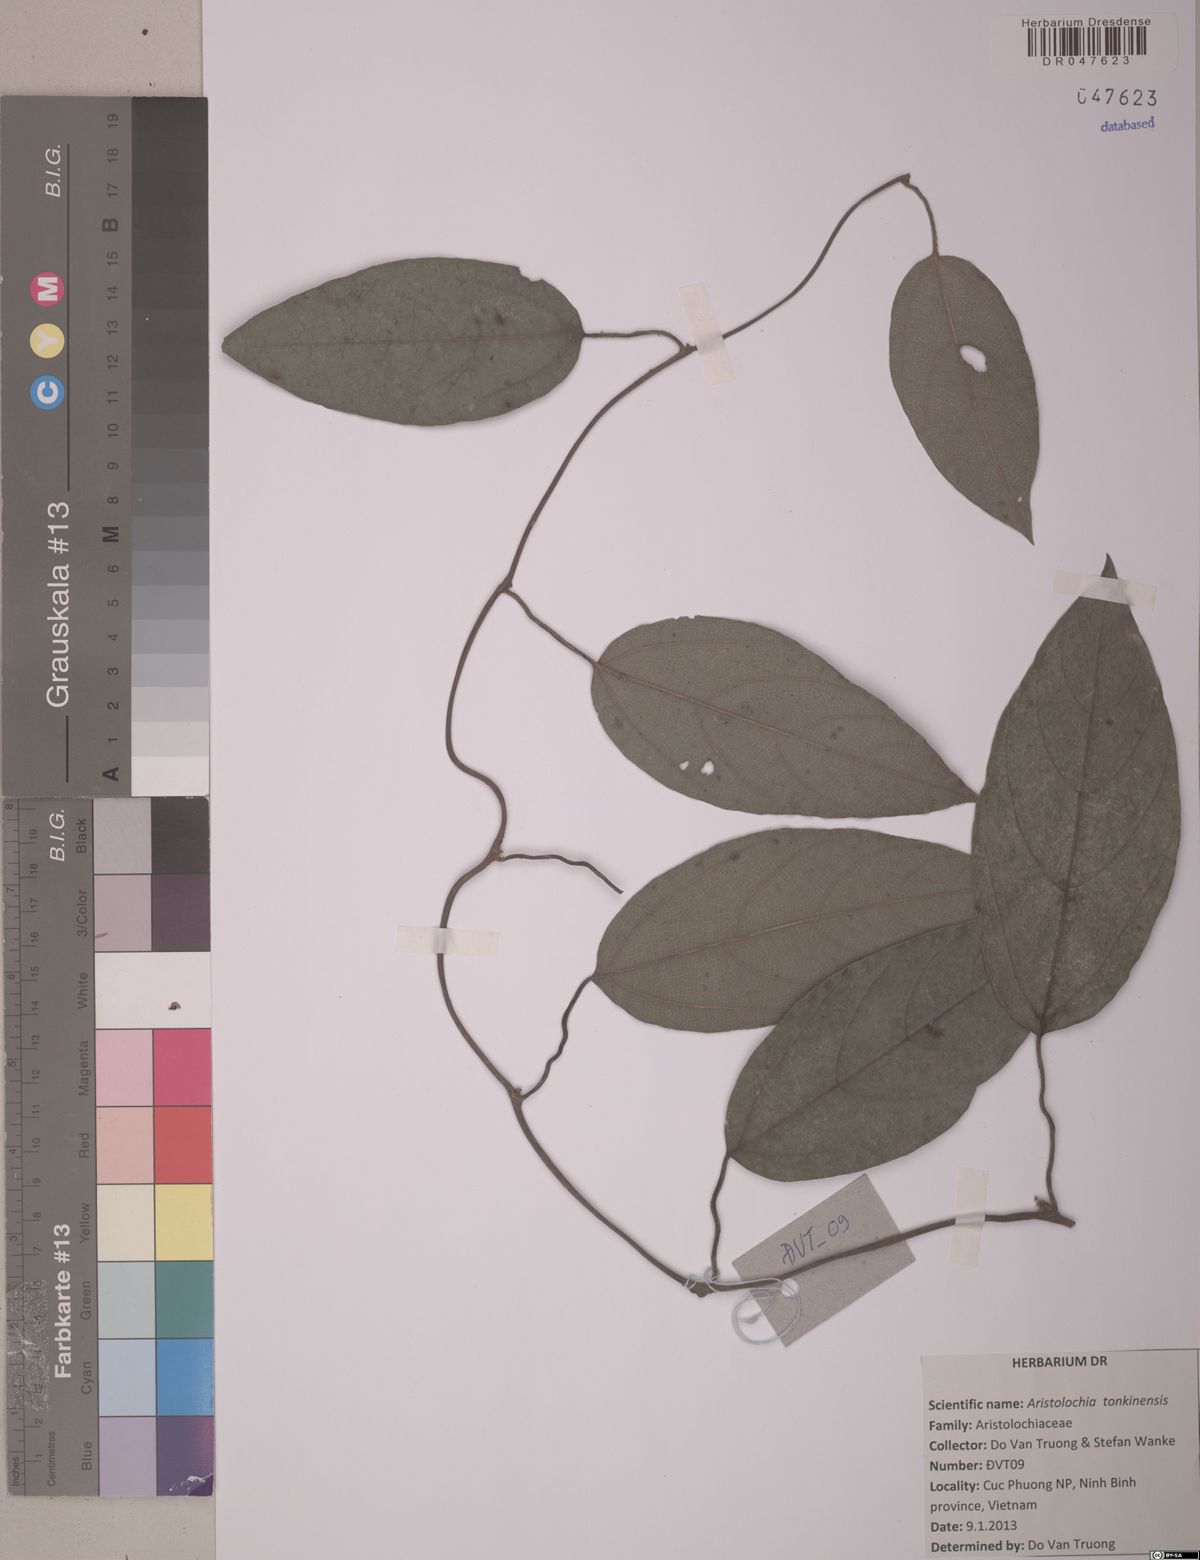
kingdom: Plantae
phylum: Tracheophyta
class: Magnoliopsida
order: Piperales
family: Aristolochiaceae
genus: Isotrema
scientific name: Isotrema tonkinense
